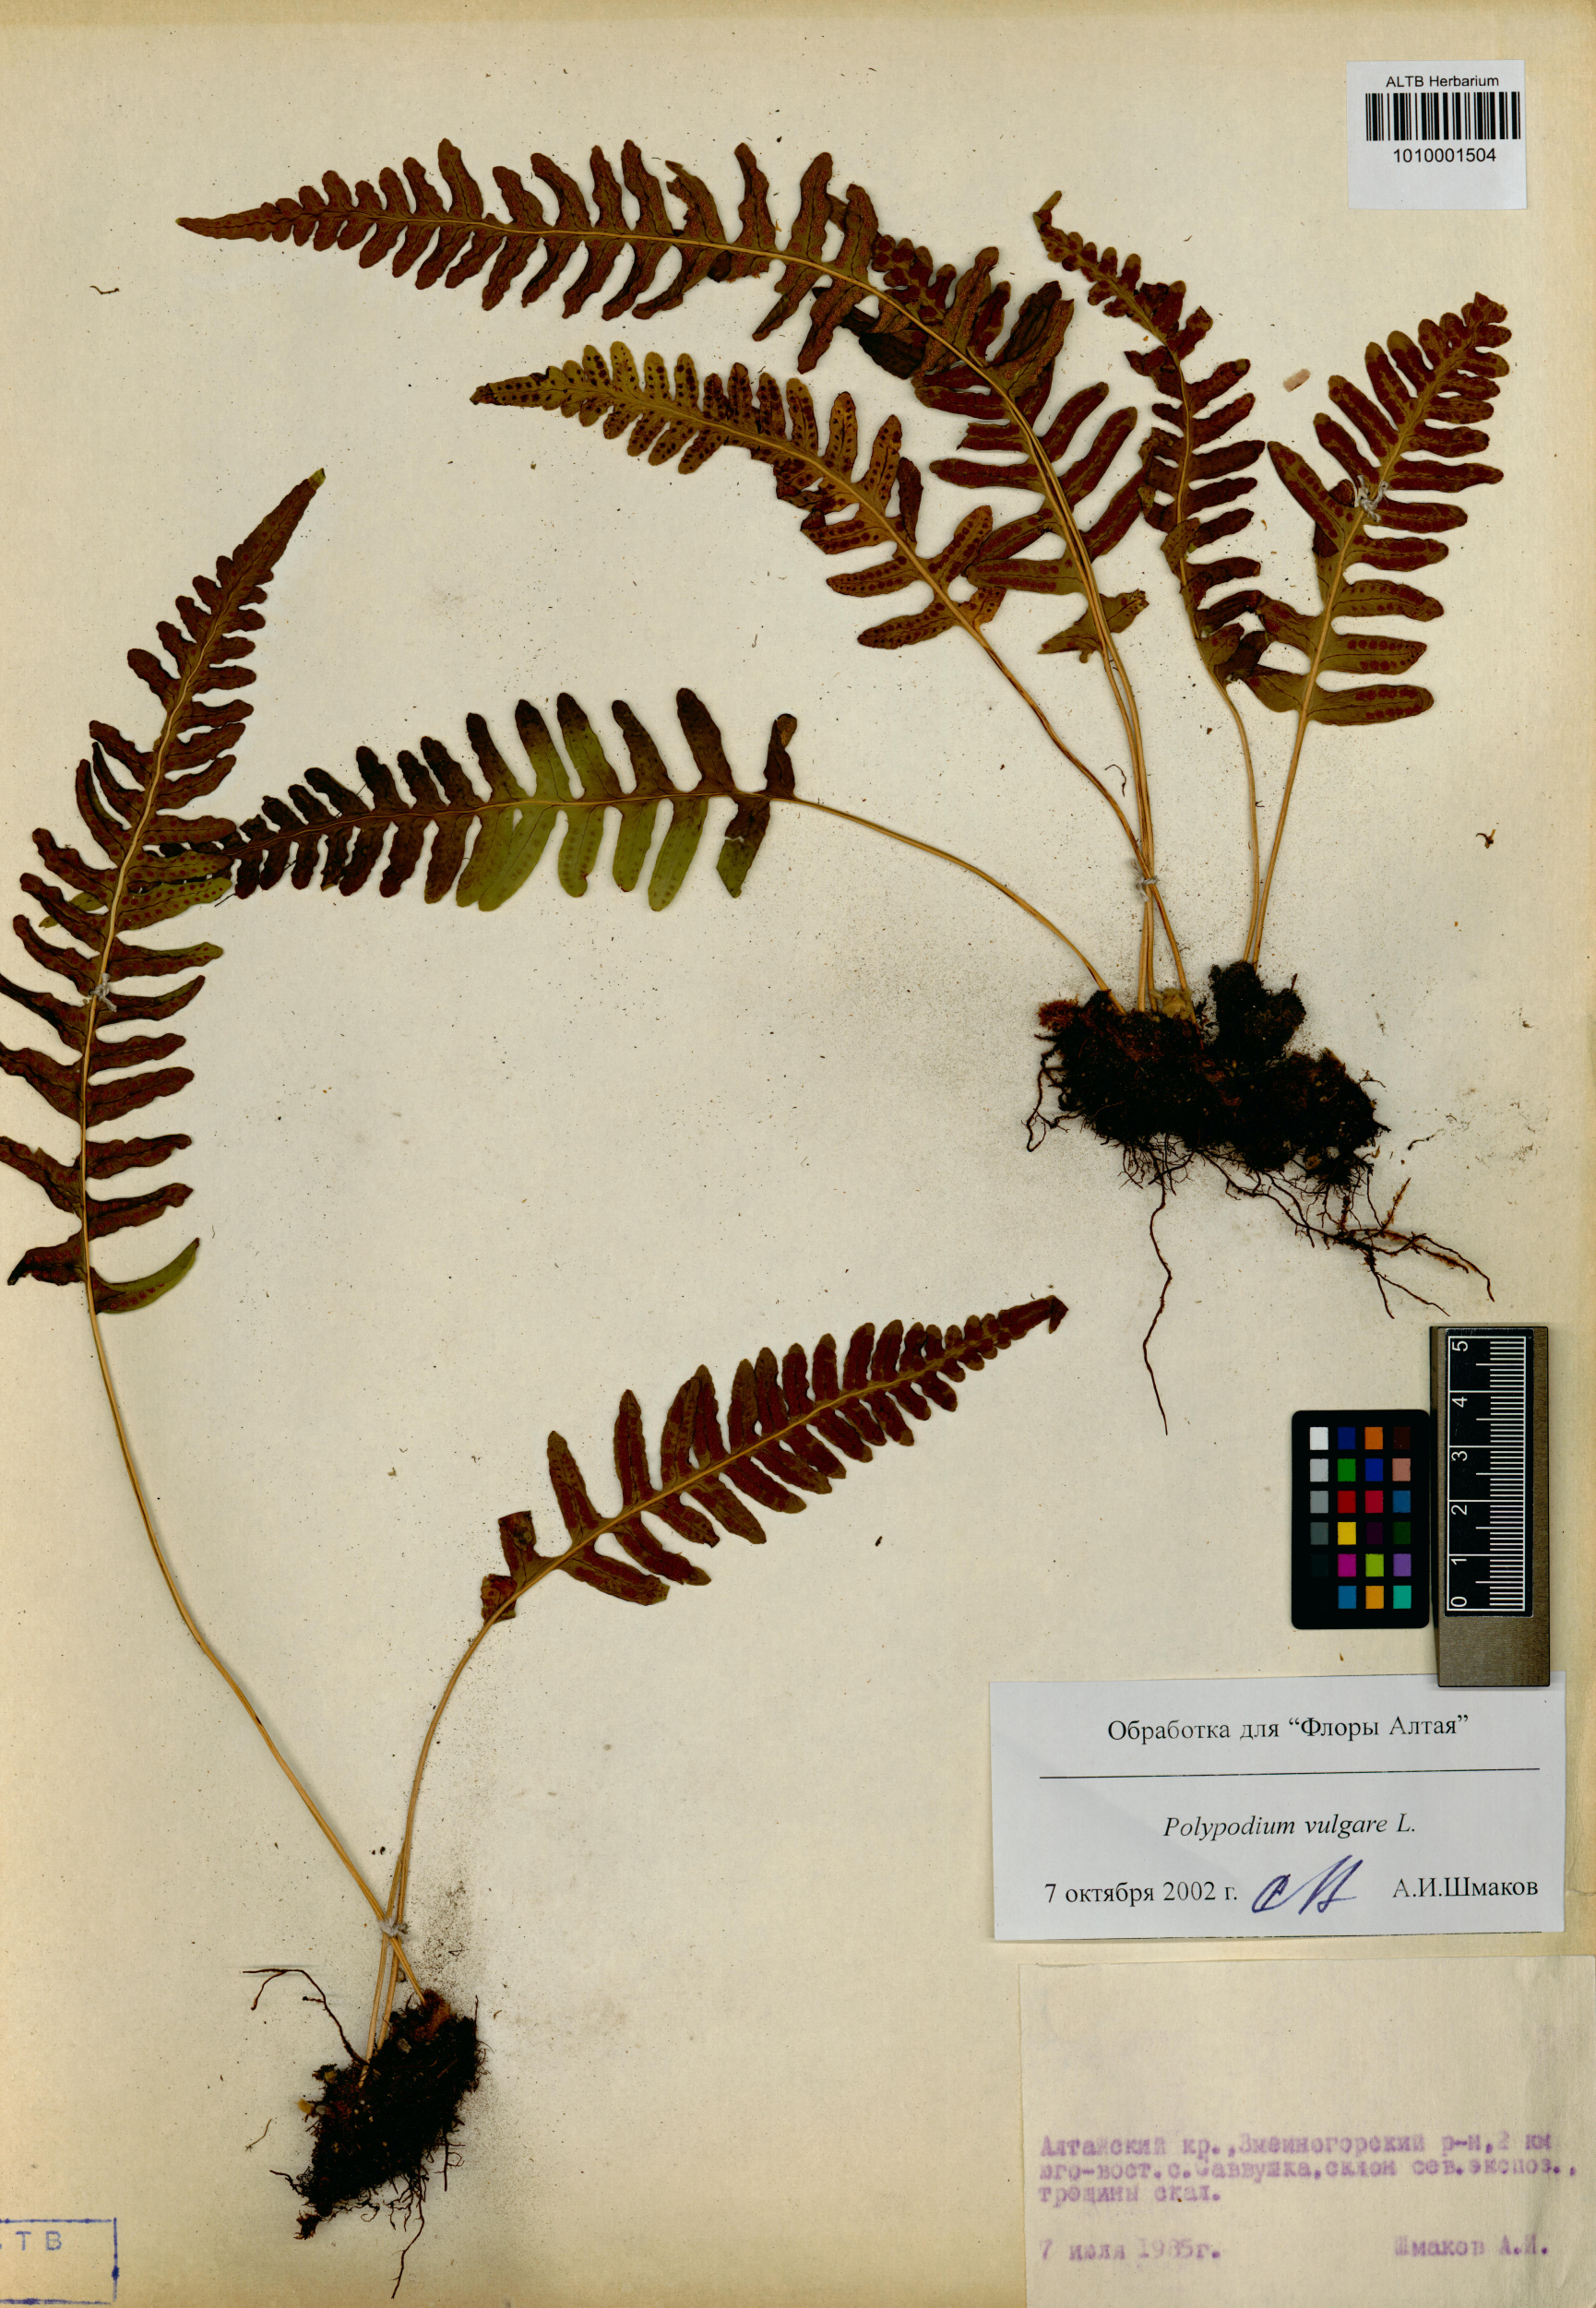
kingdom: Plantae
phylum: Tracheophyta
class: Polypodiopsida
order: Polypodiales
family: Polypodiaceae
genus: Polypodium
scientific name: Polypodium vulgare
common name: Common polypody
